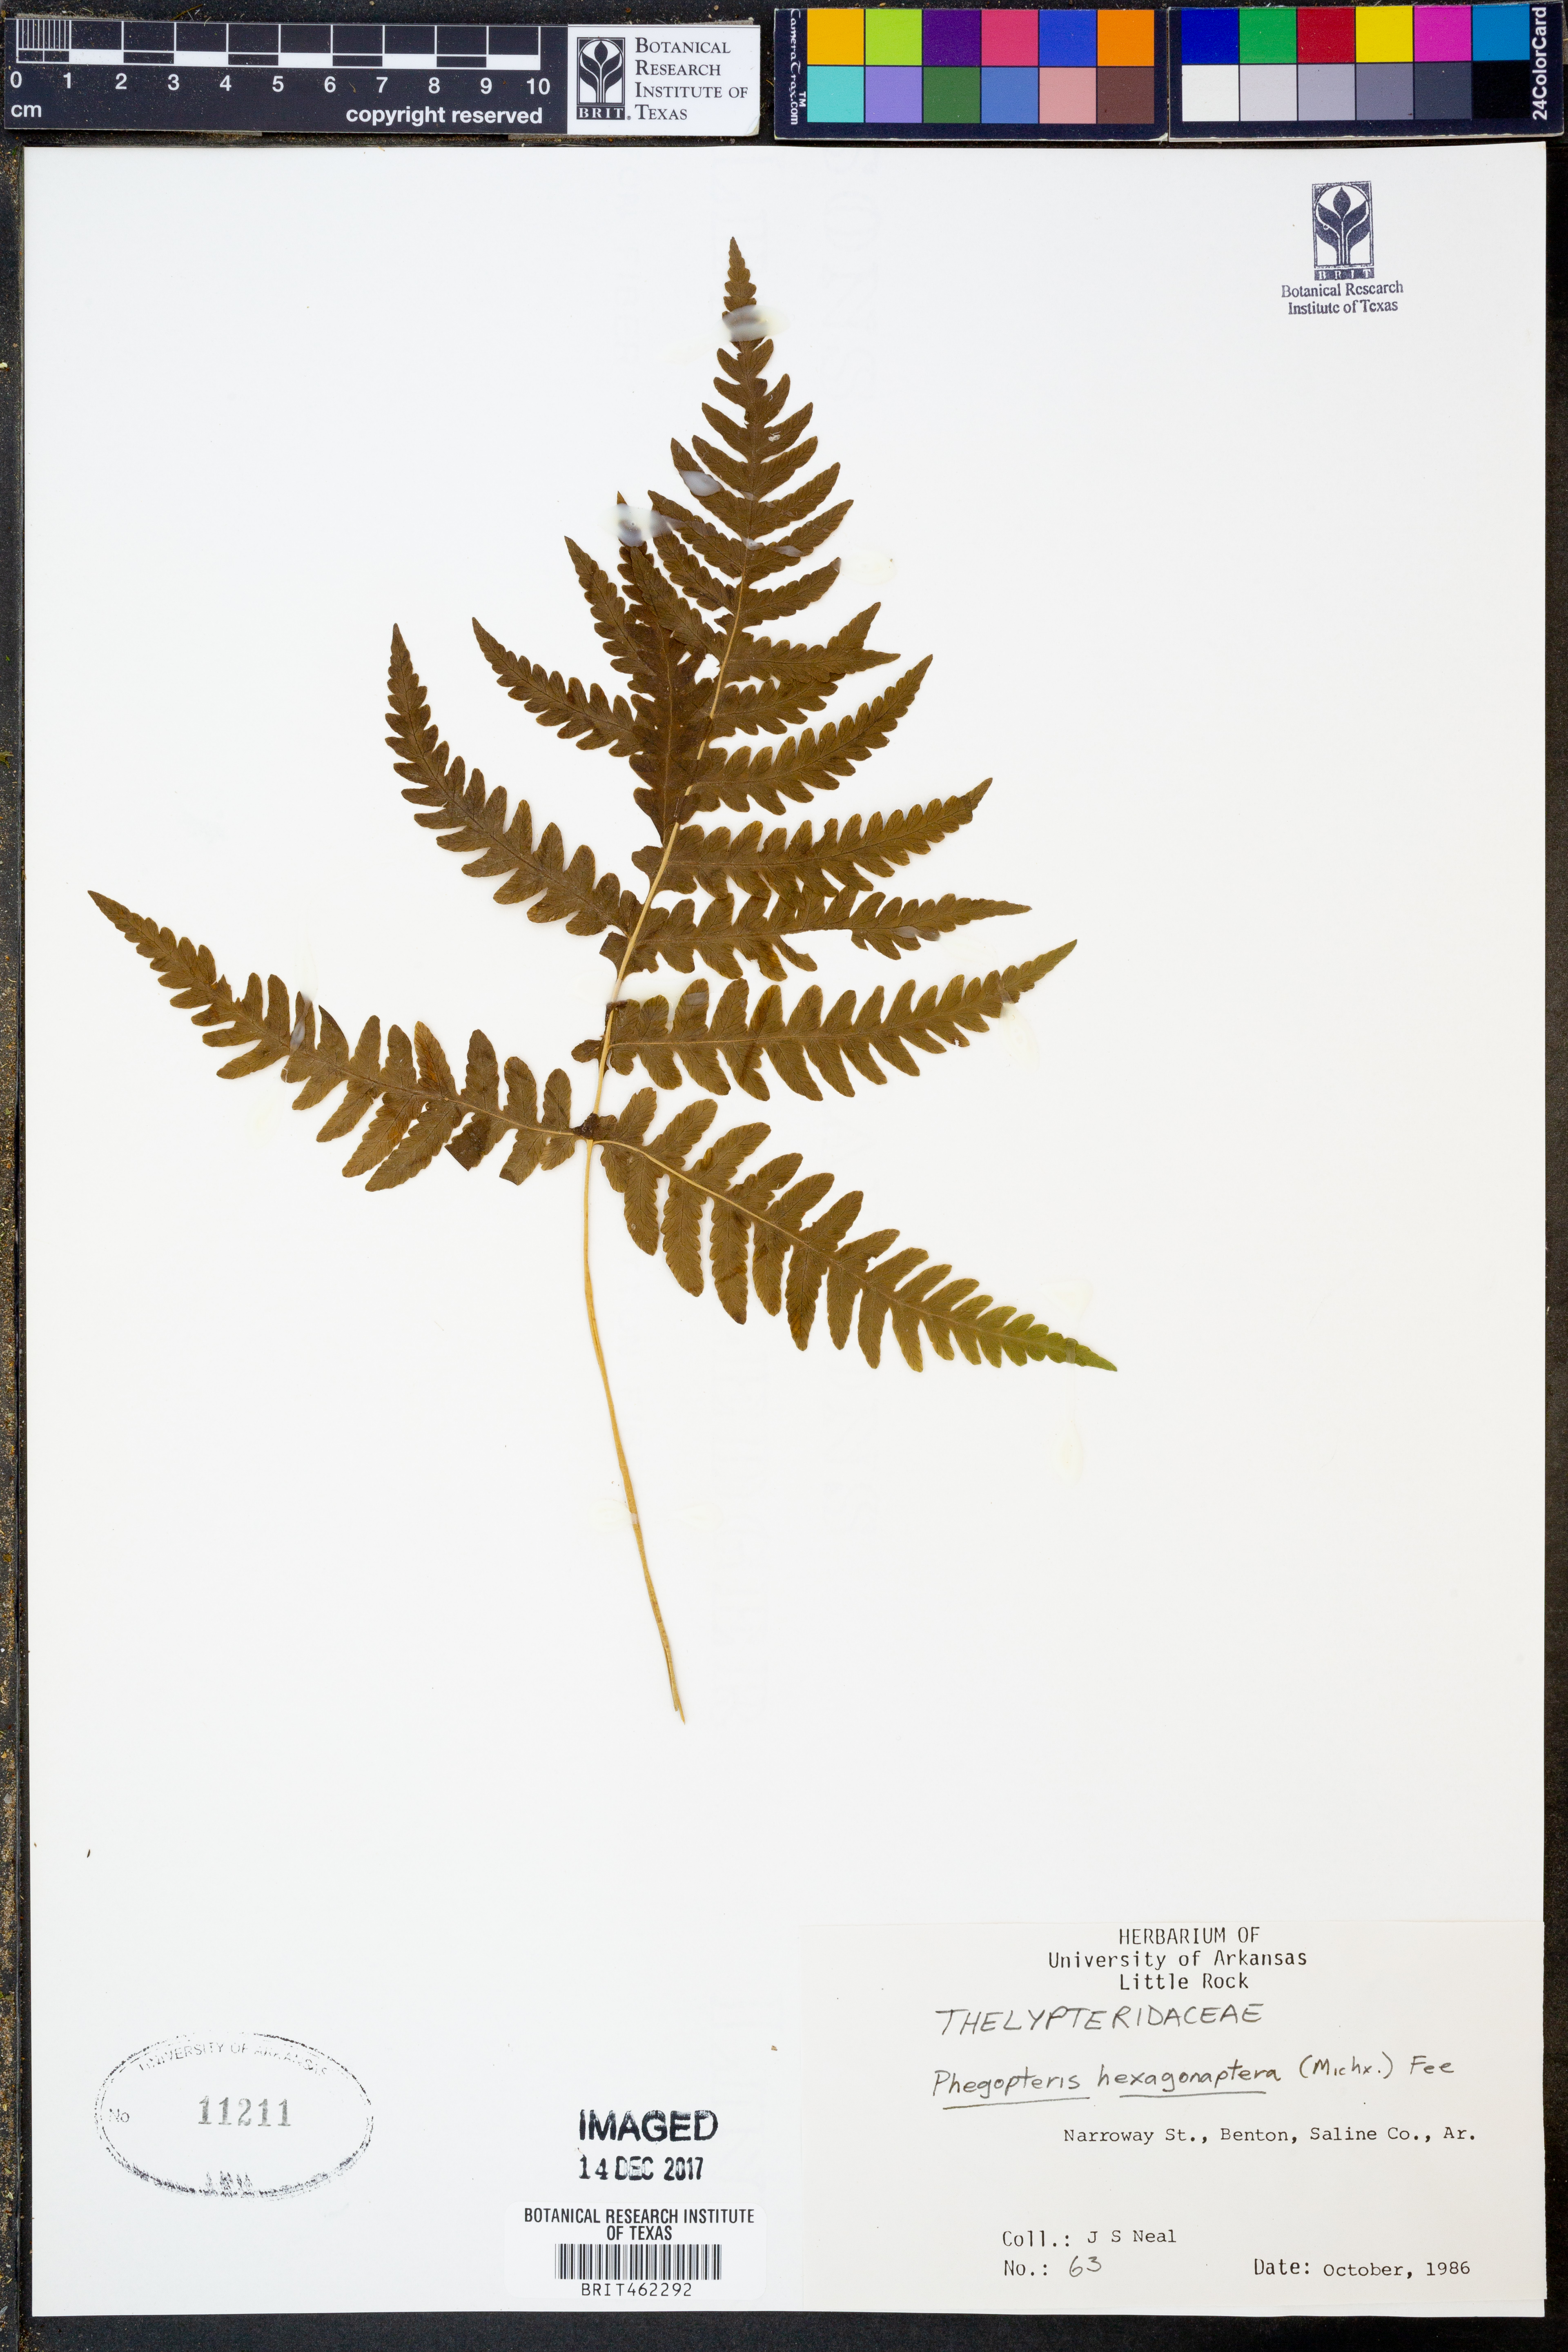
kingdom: Plantae
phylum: Tracheophyta
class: Polypodiopsida
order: Polypodiales
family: Thelypteridaceae
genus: Phegopteris
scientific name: Phegopteris hexagonoptera
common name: Broad beech fern
